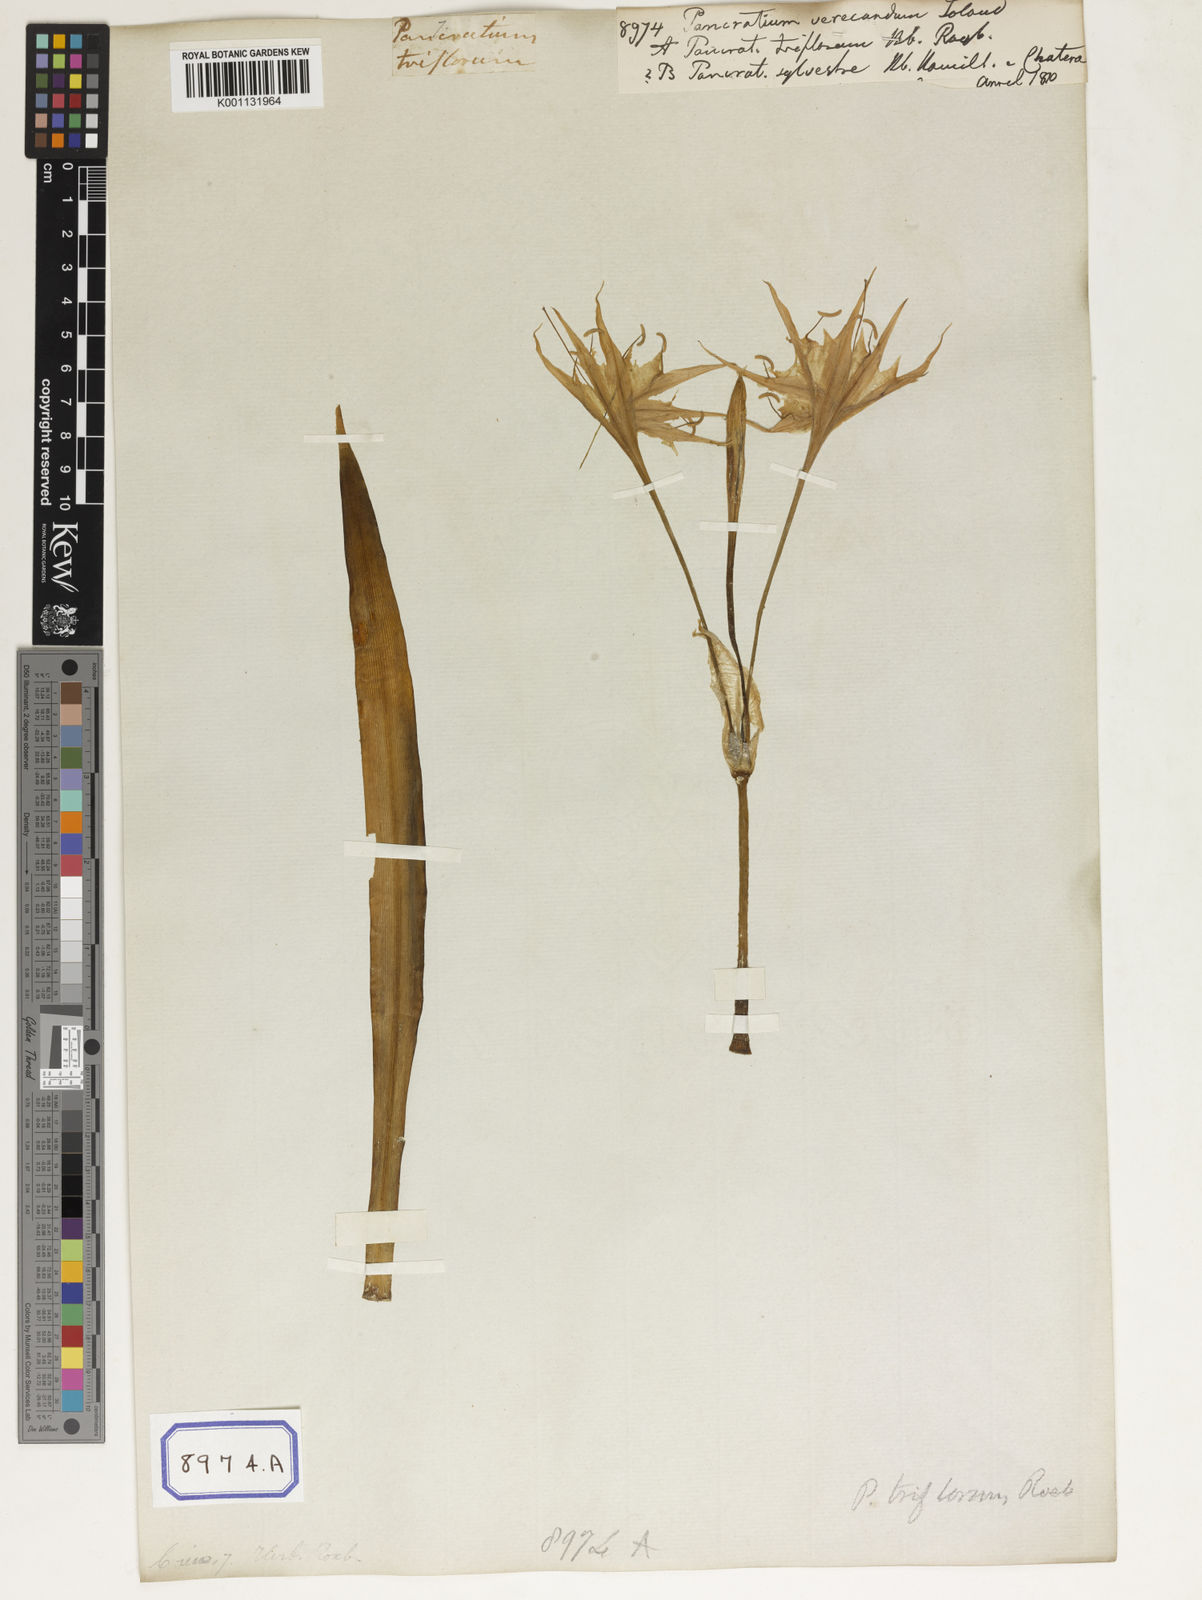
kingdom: Plantae
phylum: Tracheophyta
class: Liliopsida
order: Asparagales
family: Amaryllidaceae
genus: Pancratium
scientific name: Pancratium verecundum
